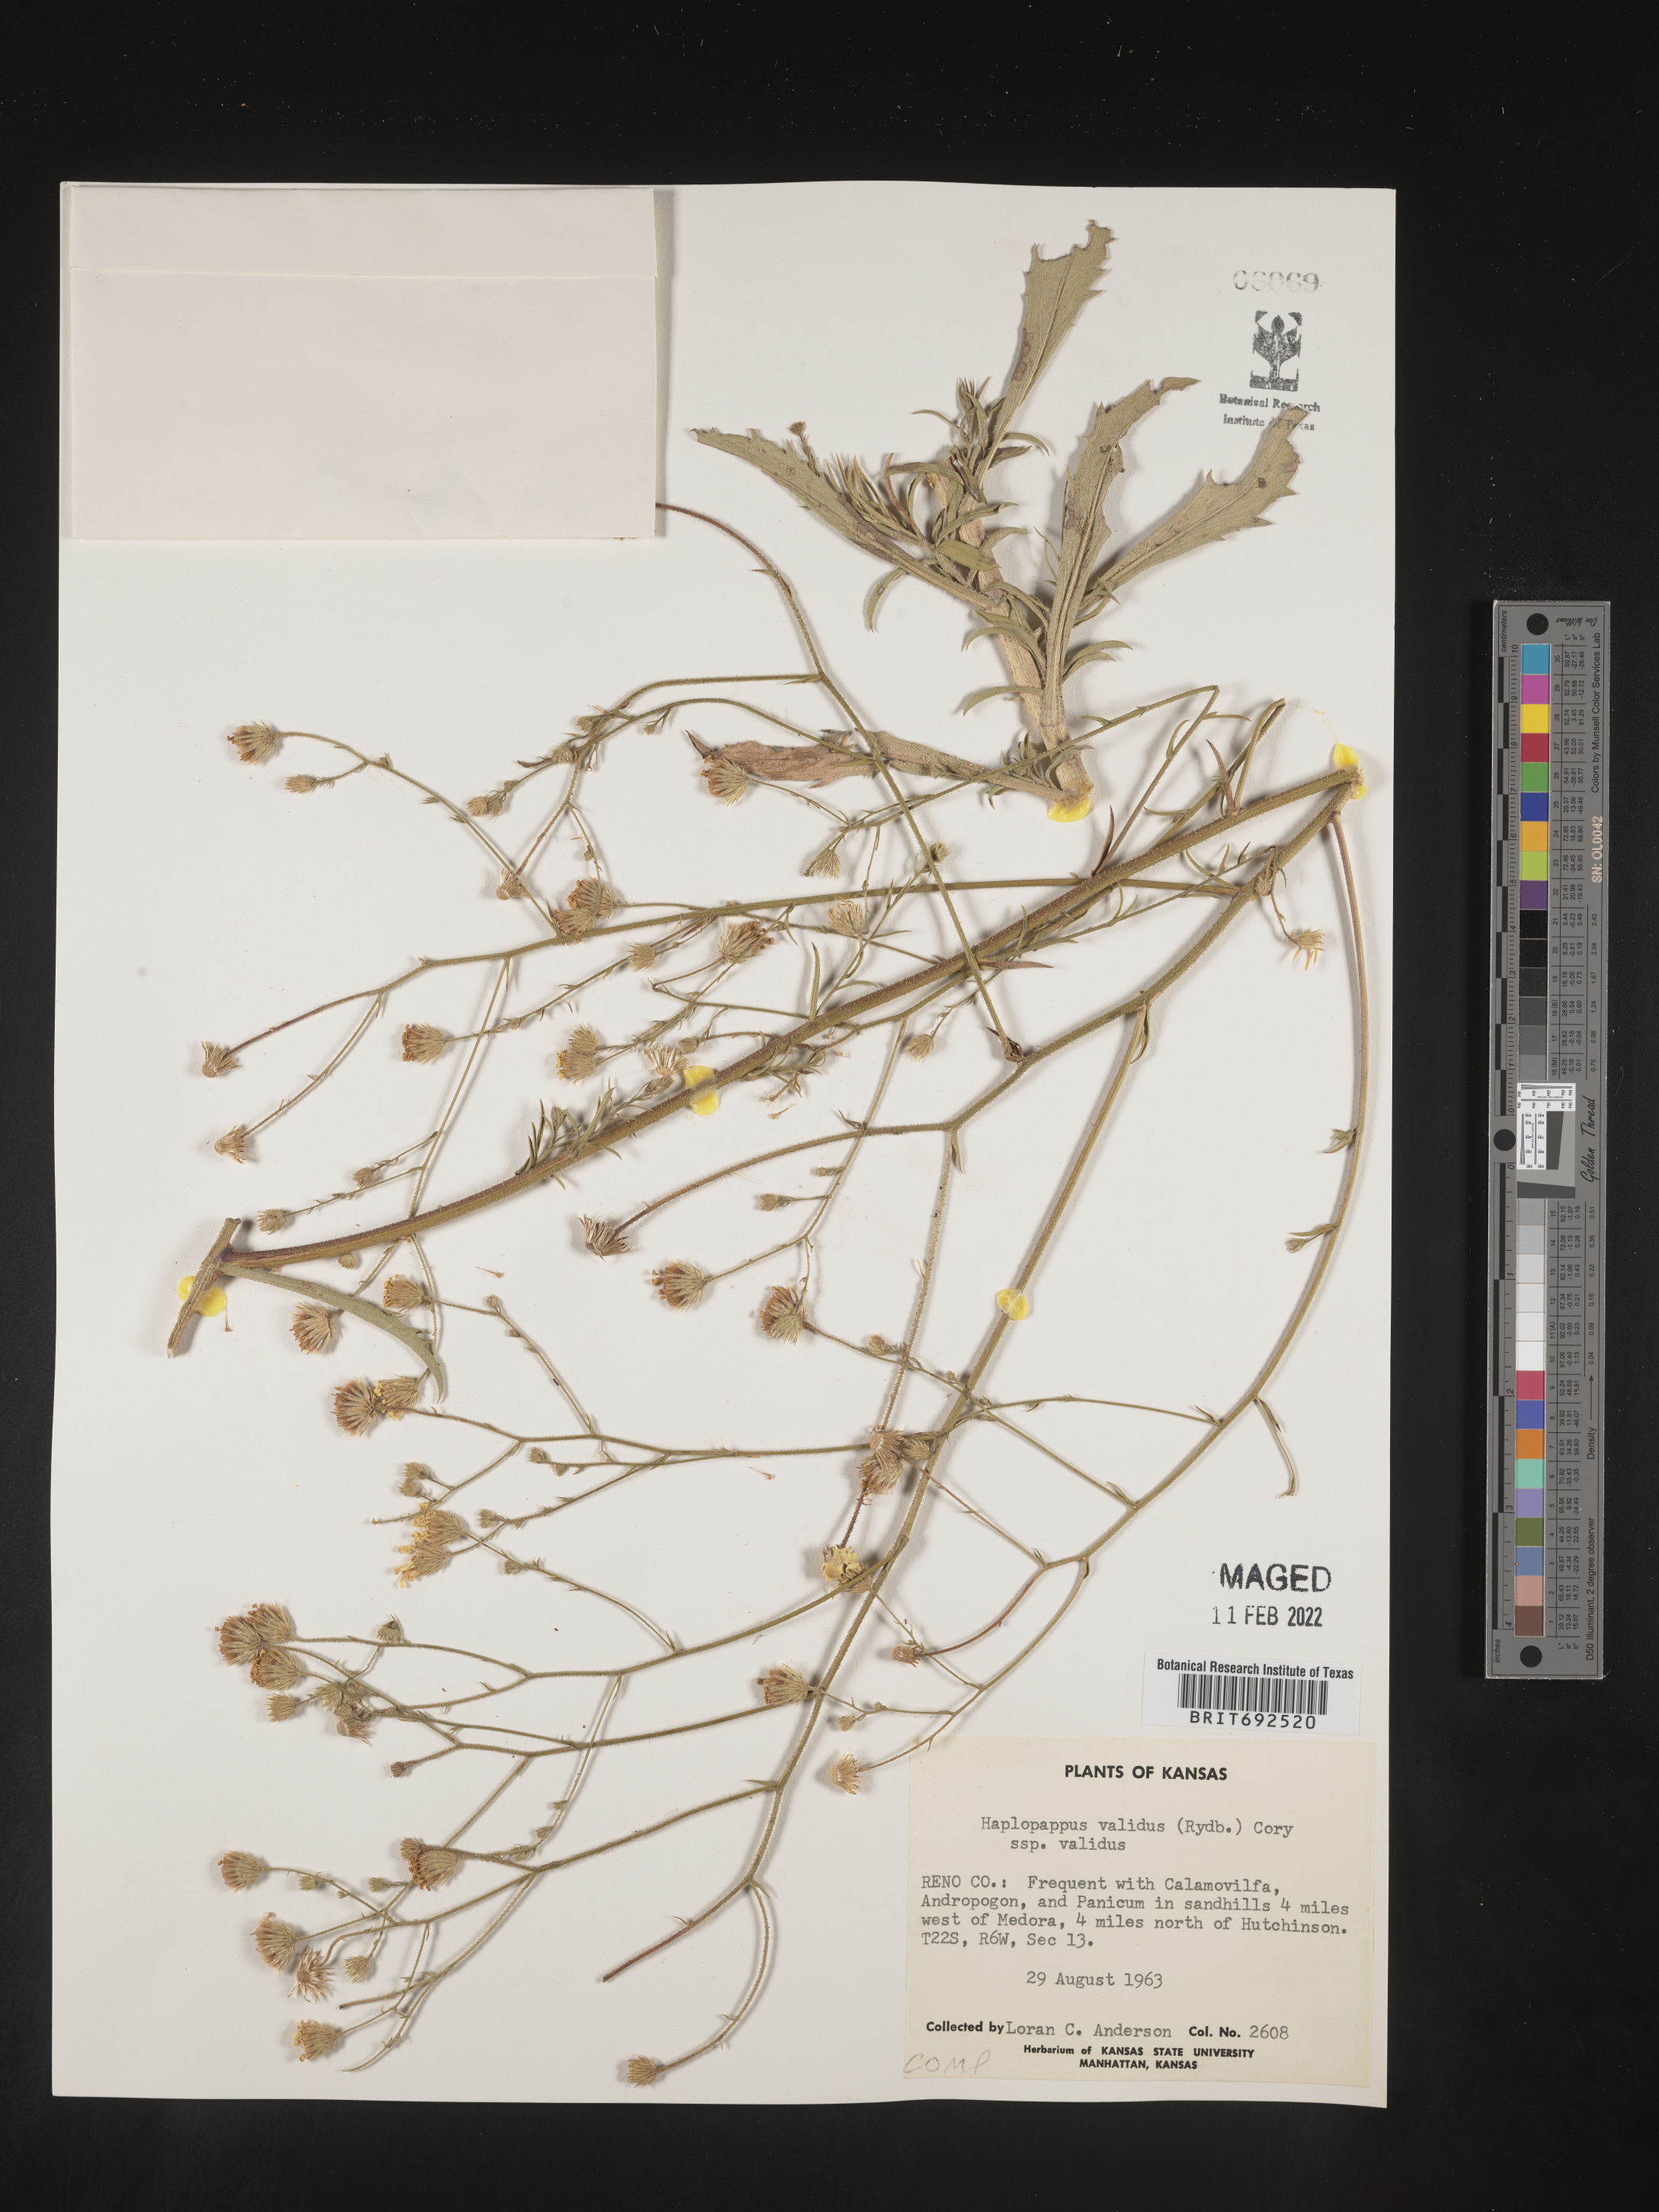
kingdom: Plantae
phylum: Tracheophyta
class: Magnoliopsida
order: Asterales
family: Asteraceae
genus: Croptilon
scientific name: Croptilon hookerianum
